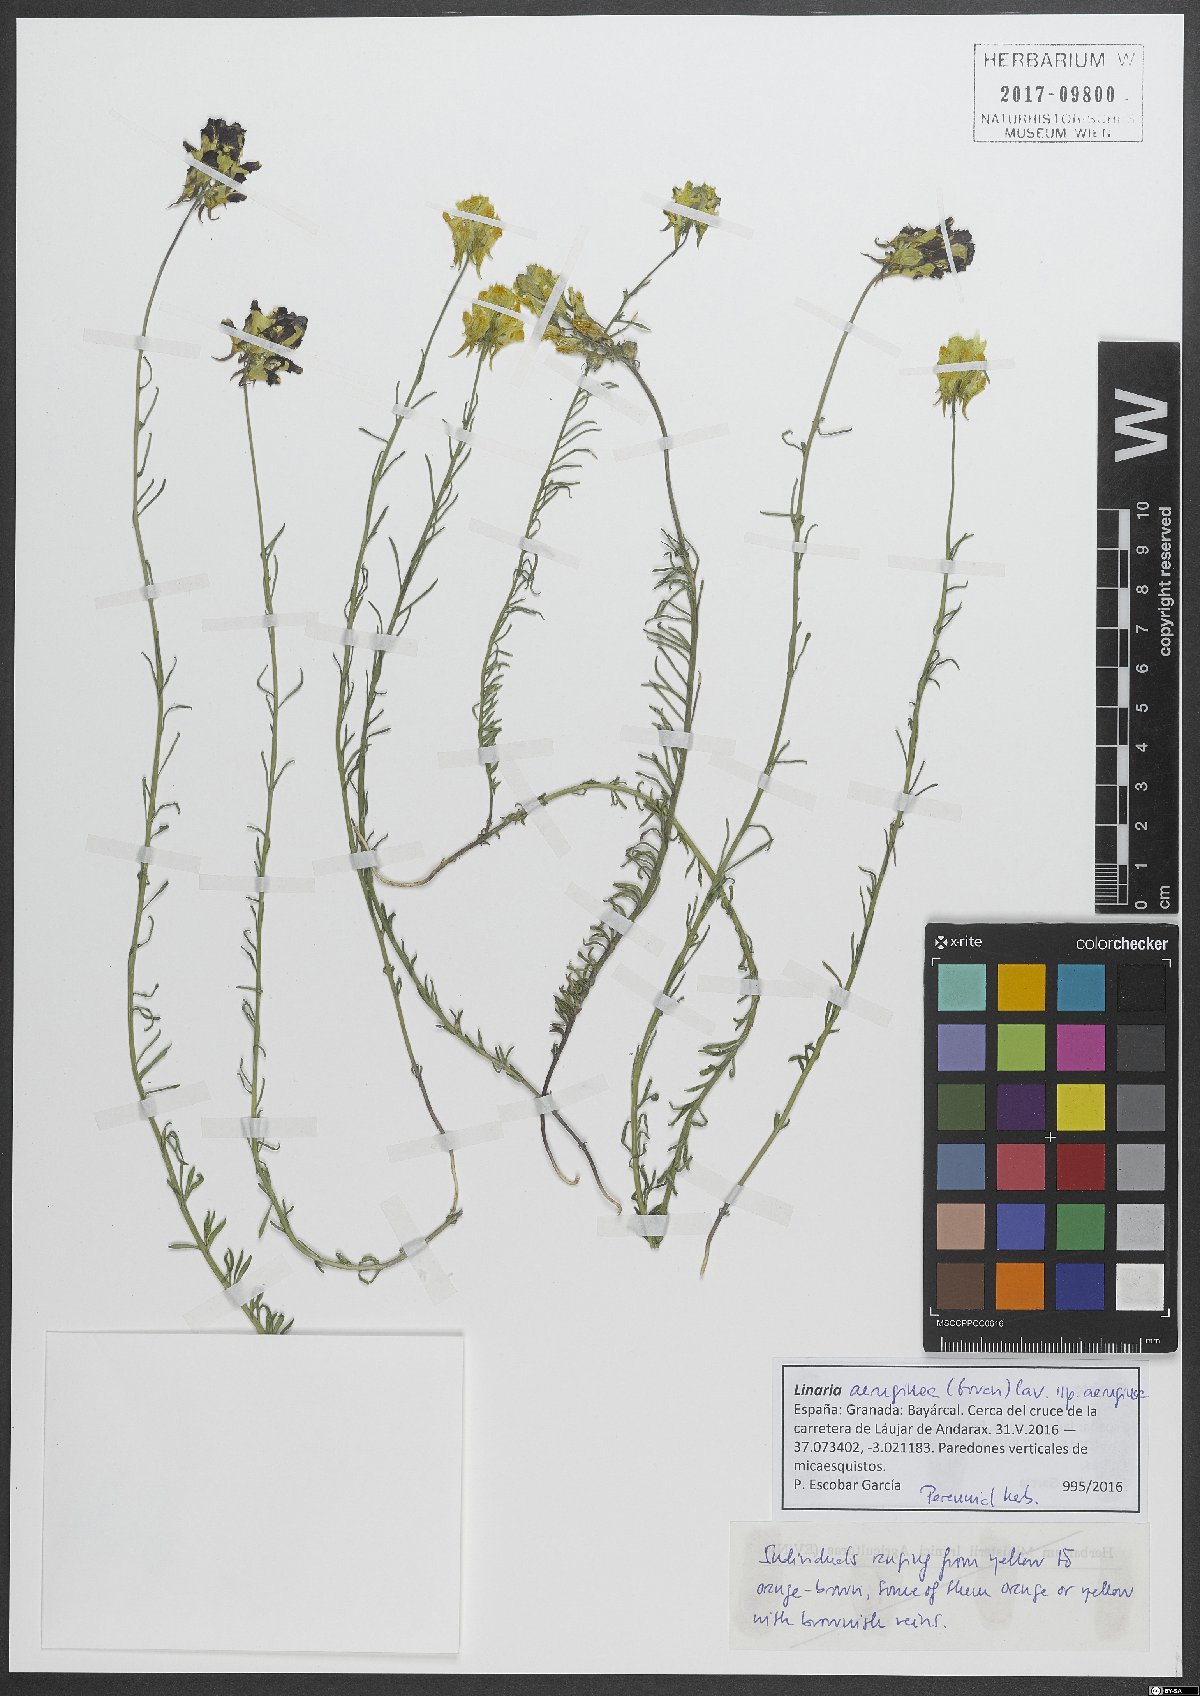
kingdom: Plantae
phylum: Tracheophyta
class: Magnoliopsida
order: Lamiales
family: Plantaginaceae
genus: Linaria
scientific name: Linaria aeruginea
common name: Roadside toadflax
